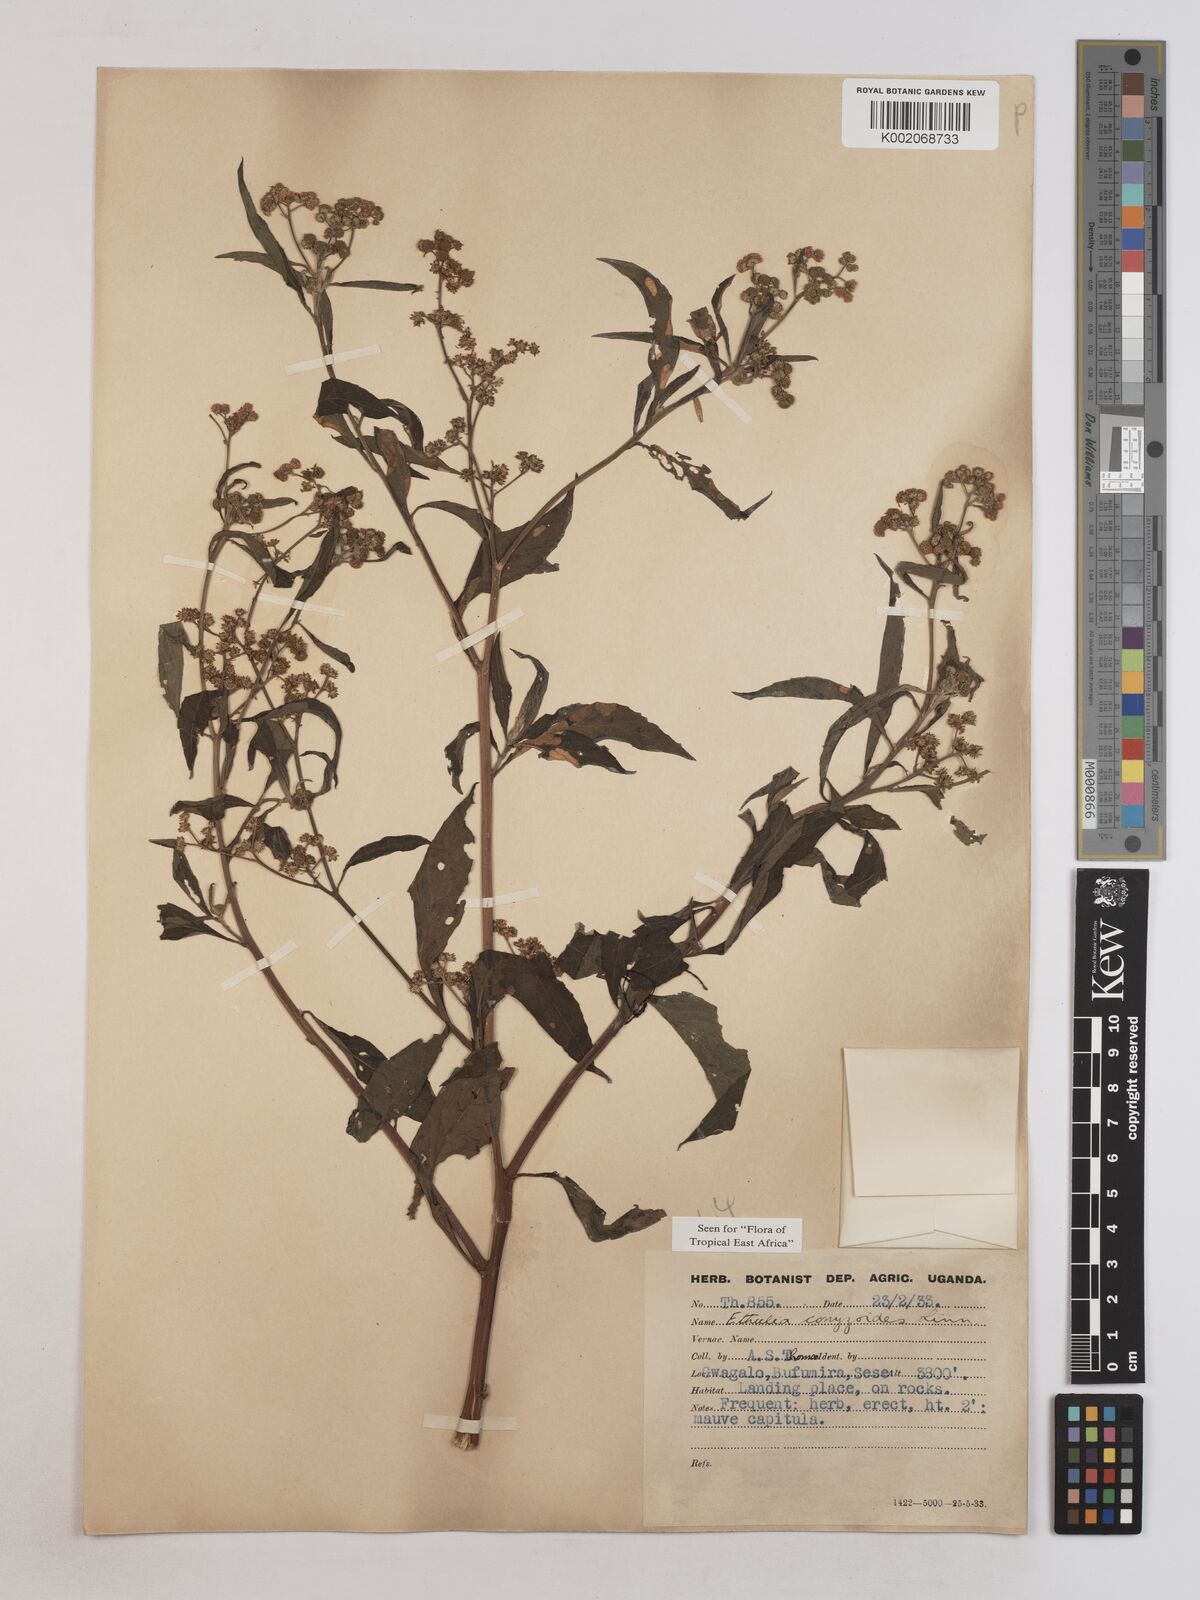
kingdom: Plantae
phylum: Tracheophyta
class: Magnoliopsida
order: Asterales
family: Asteraceae
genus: Ethulia
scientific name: Ethulia conyzoides
